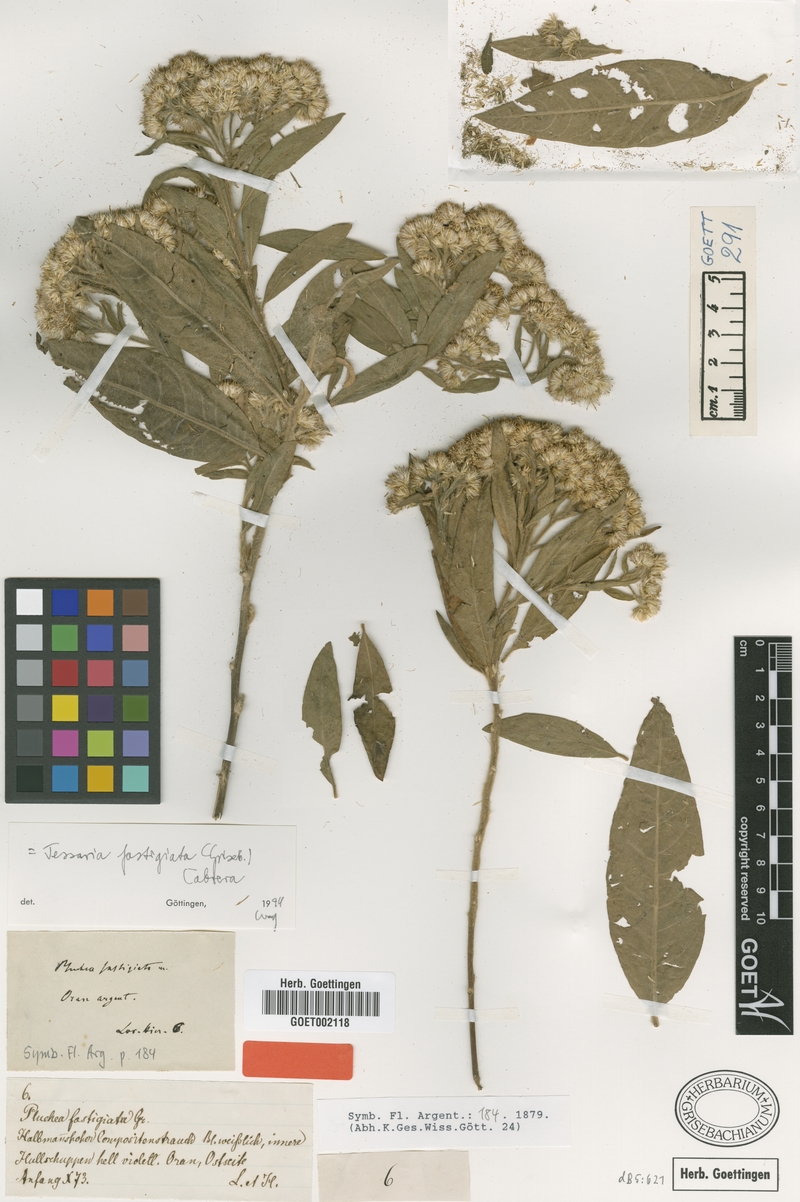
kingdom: Plantae
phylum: Tracheophyta
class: Magnoliopsida
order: Asterales
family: Asteraceae
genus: Tessaria
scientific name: Tessaria fastigiata
